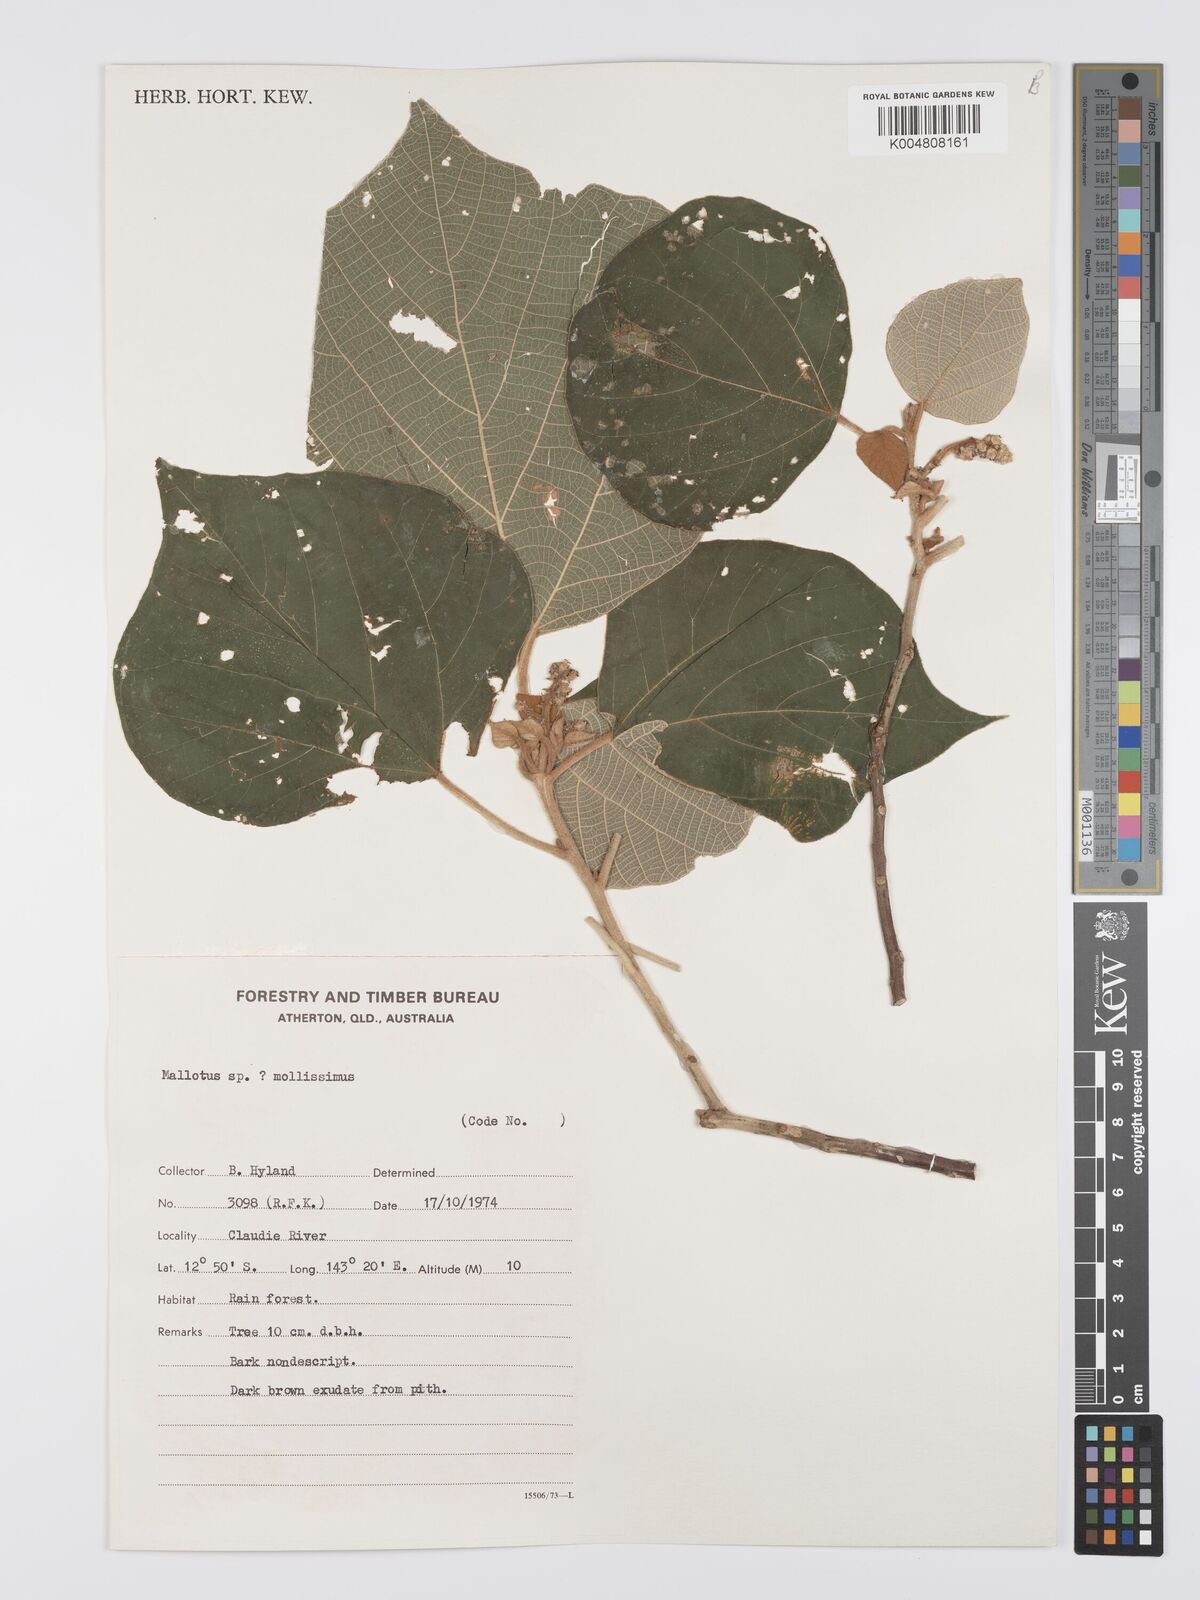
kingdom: Plantae
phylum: Tracheophyta
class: Magnoliopsida
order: Malpighiales
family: Euphorbiaceae
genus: Mallotus
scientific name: Mallotus mollissimus
